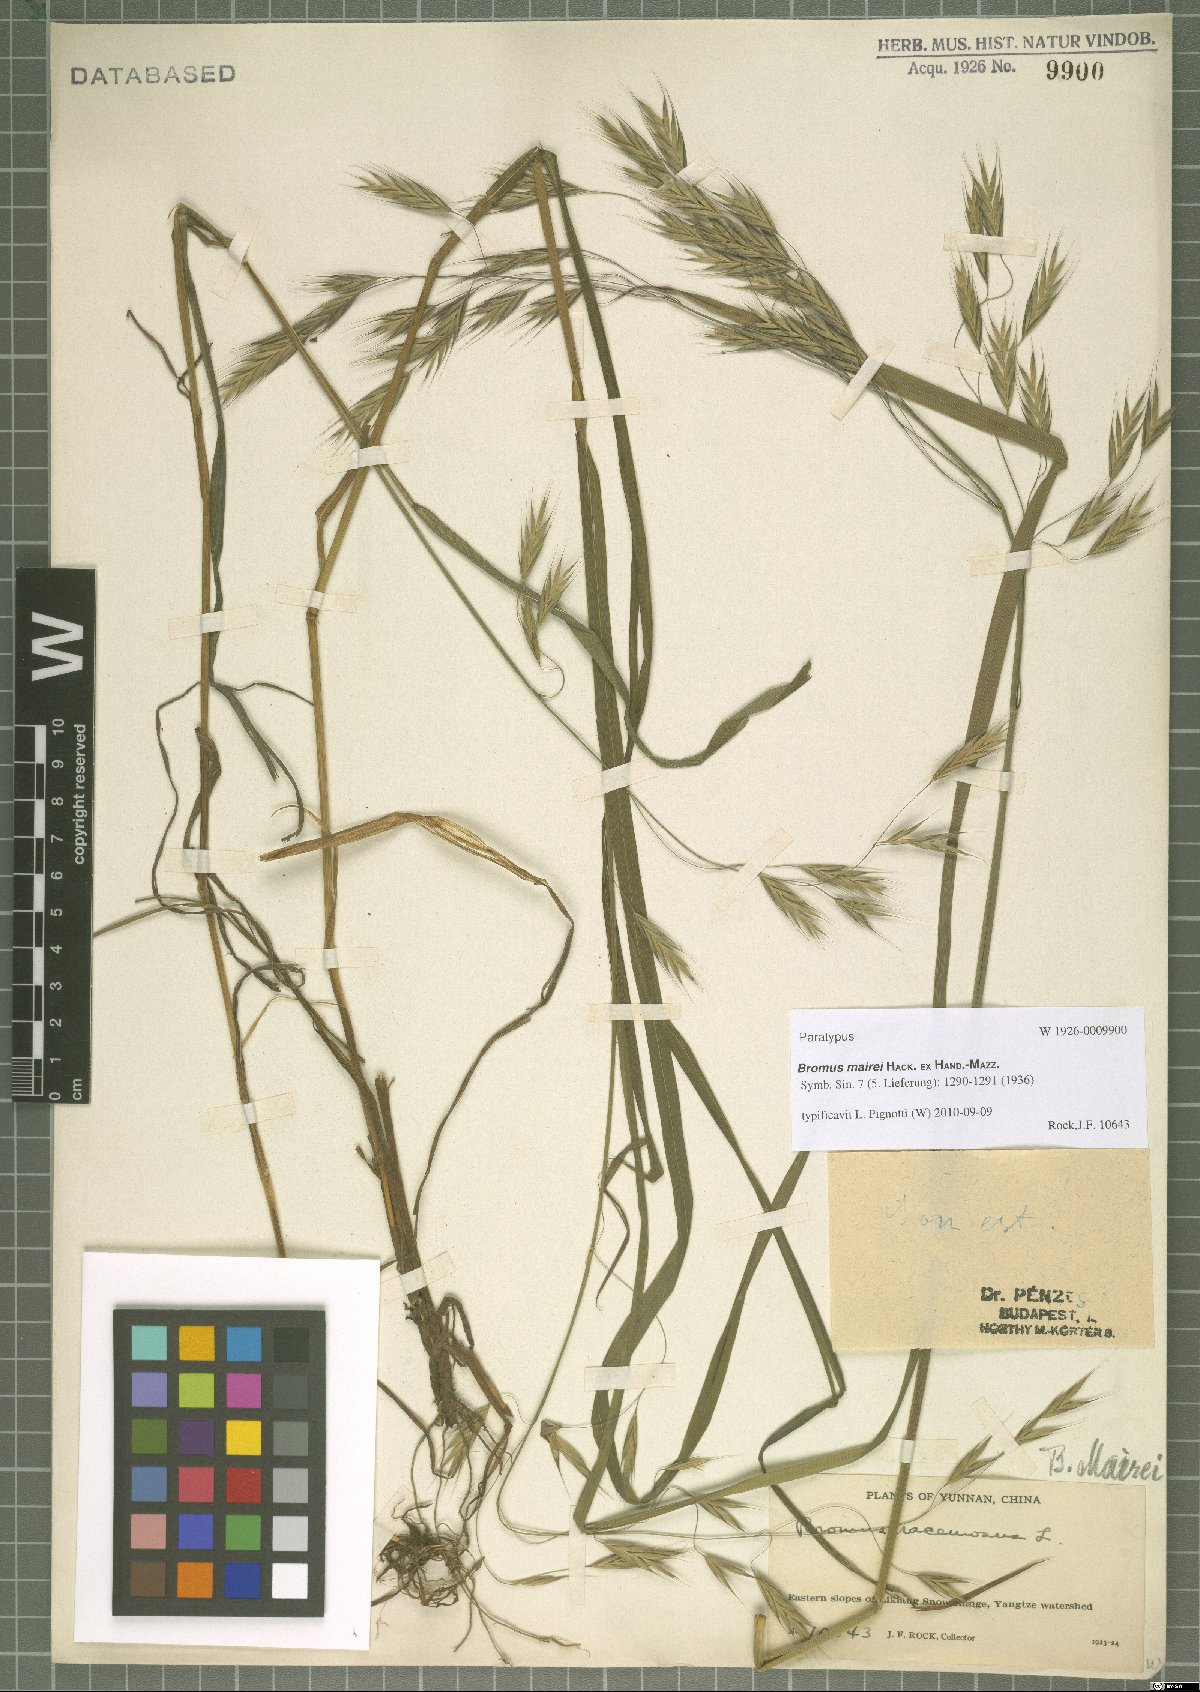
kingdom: Plantae
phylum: Tracheophyta
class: Liliopsida
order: Poales
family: Poaceae
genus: Bromus
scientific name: Bromus mairei
